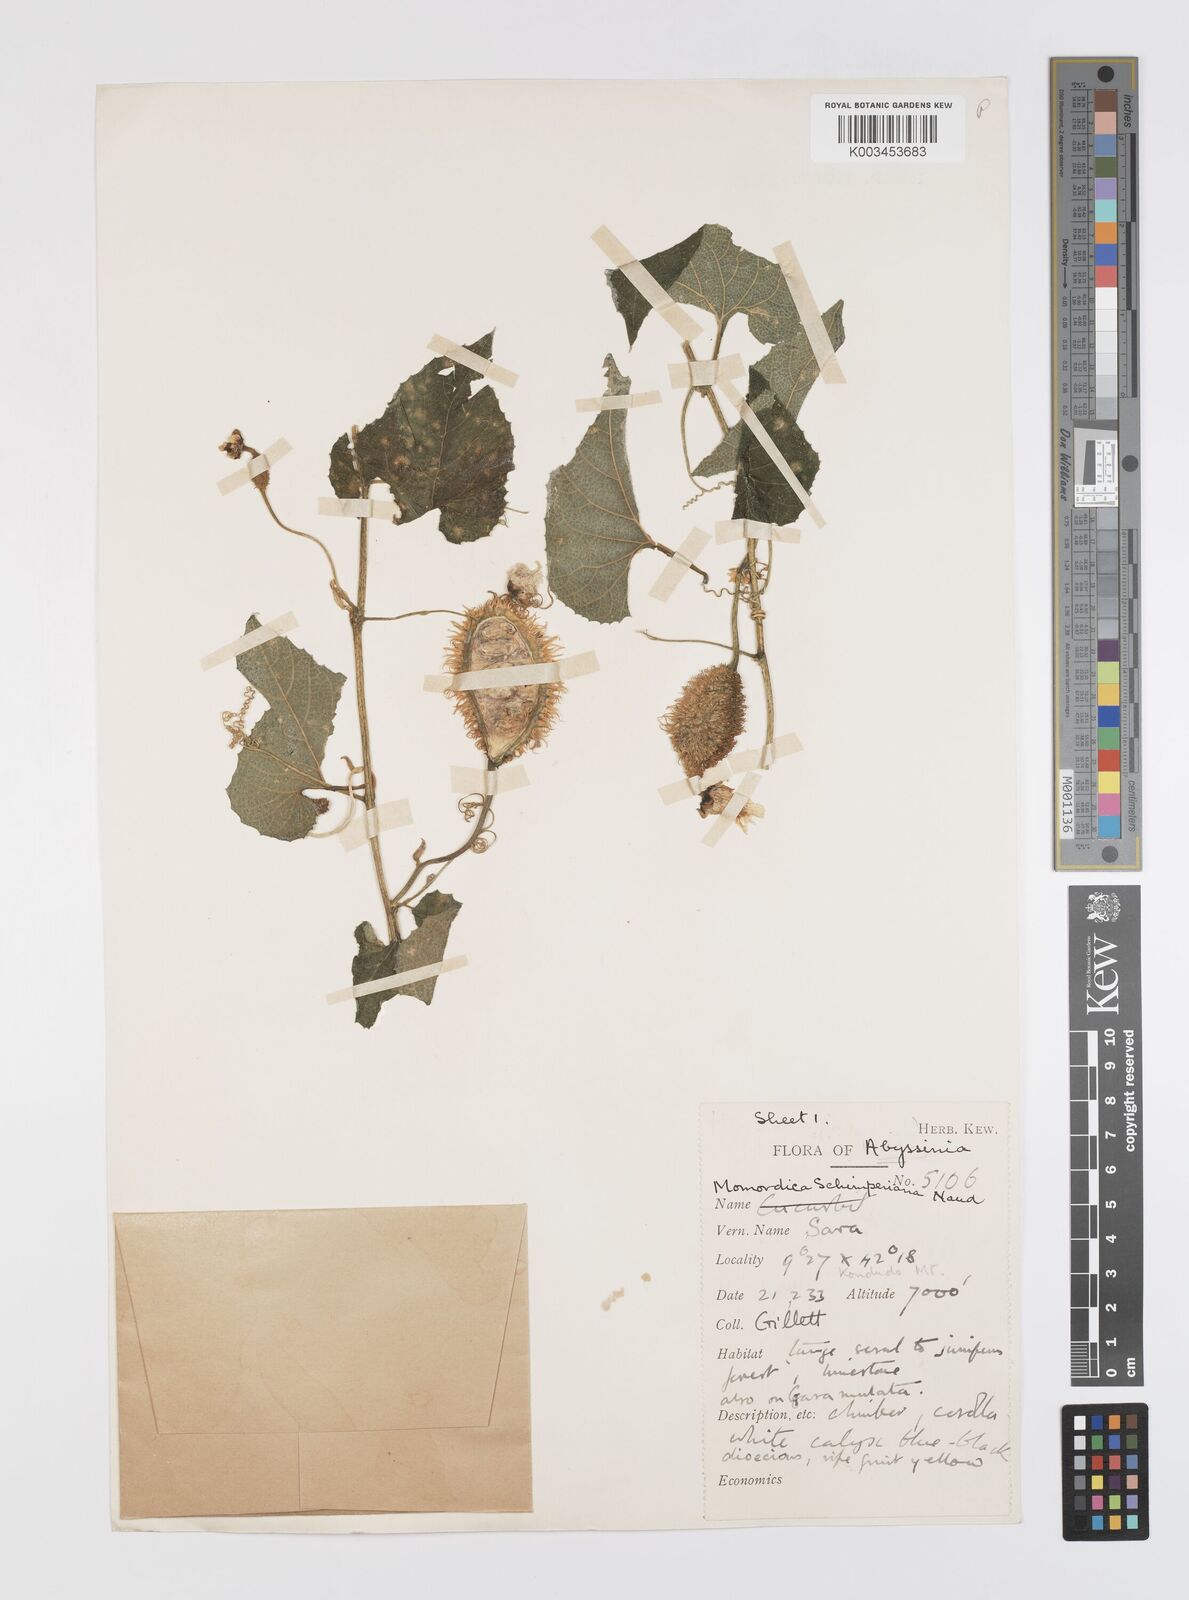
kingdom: Plantae
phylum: Tracheophyta
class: Magnoliopsida
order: Cucurbitales
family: Cucurbitaceae
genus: Momordica
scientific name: Momordica foetida
